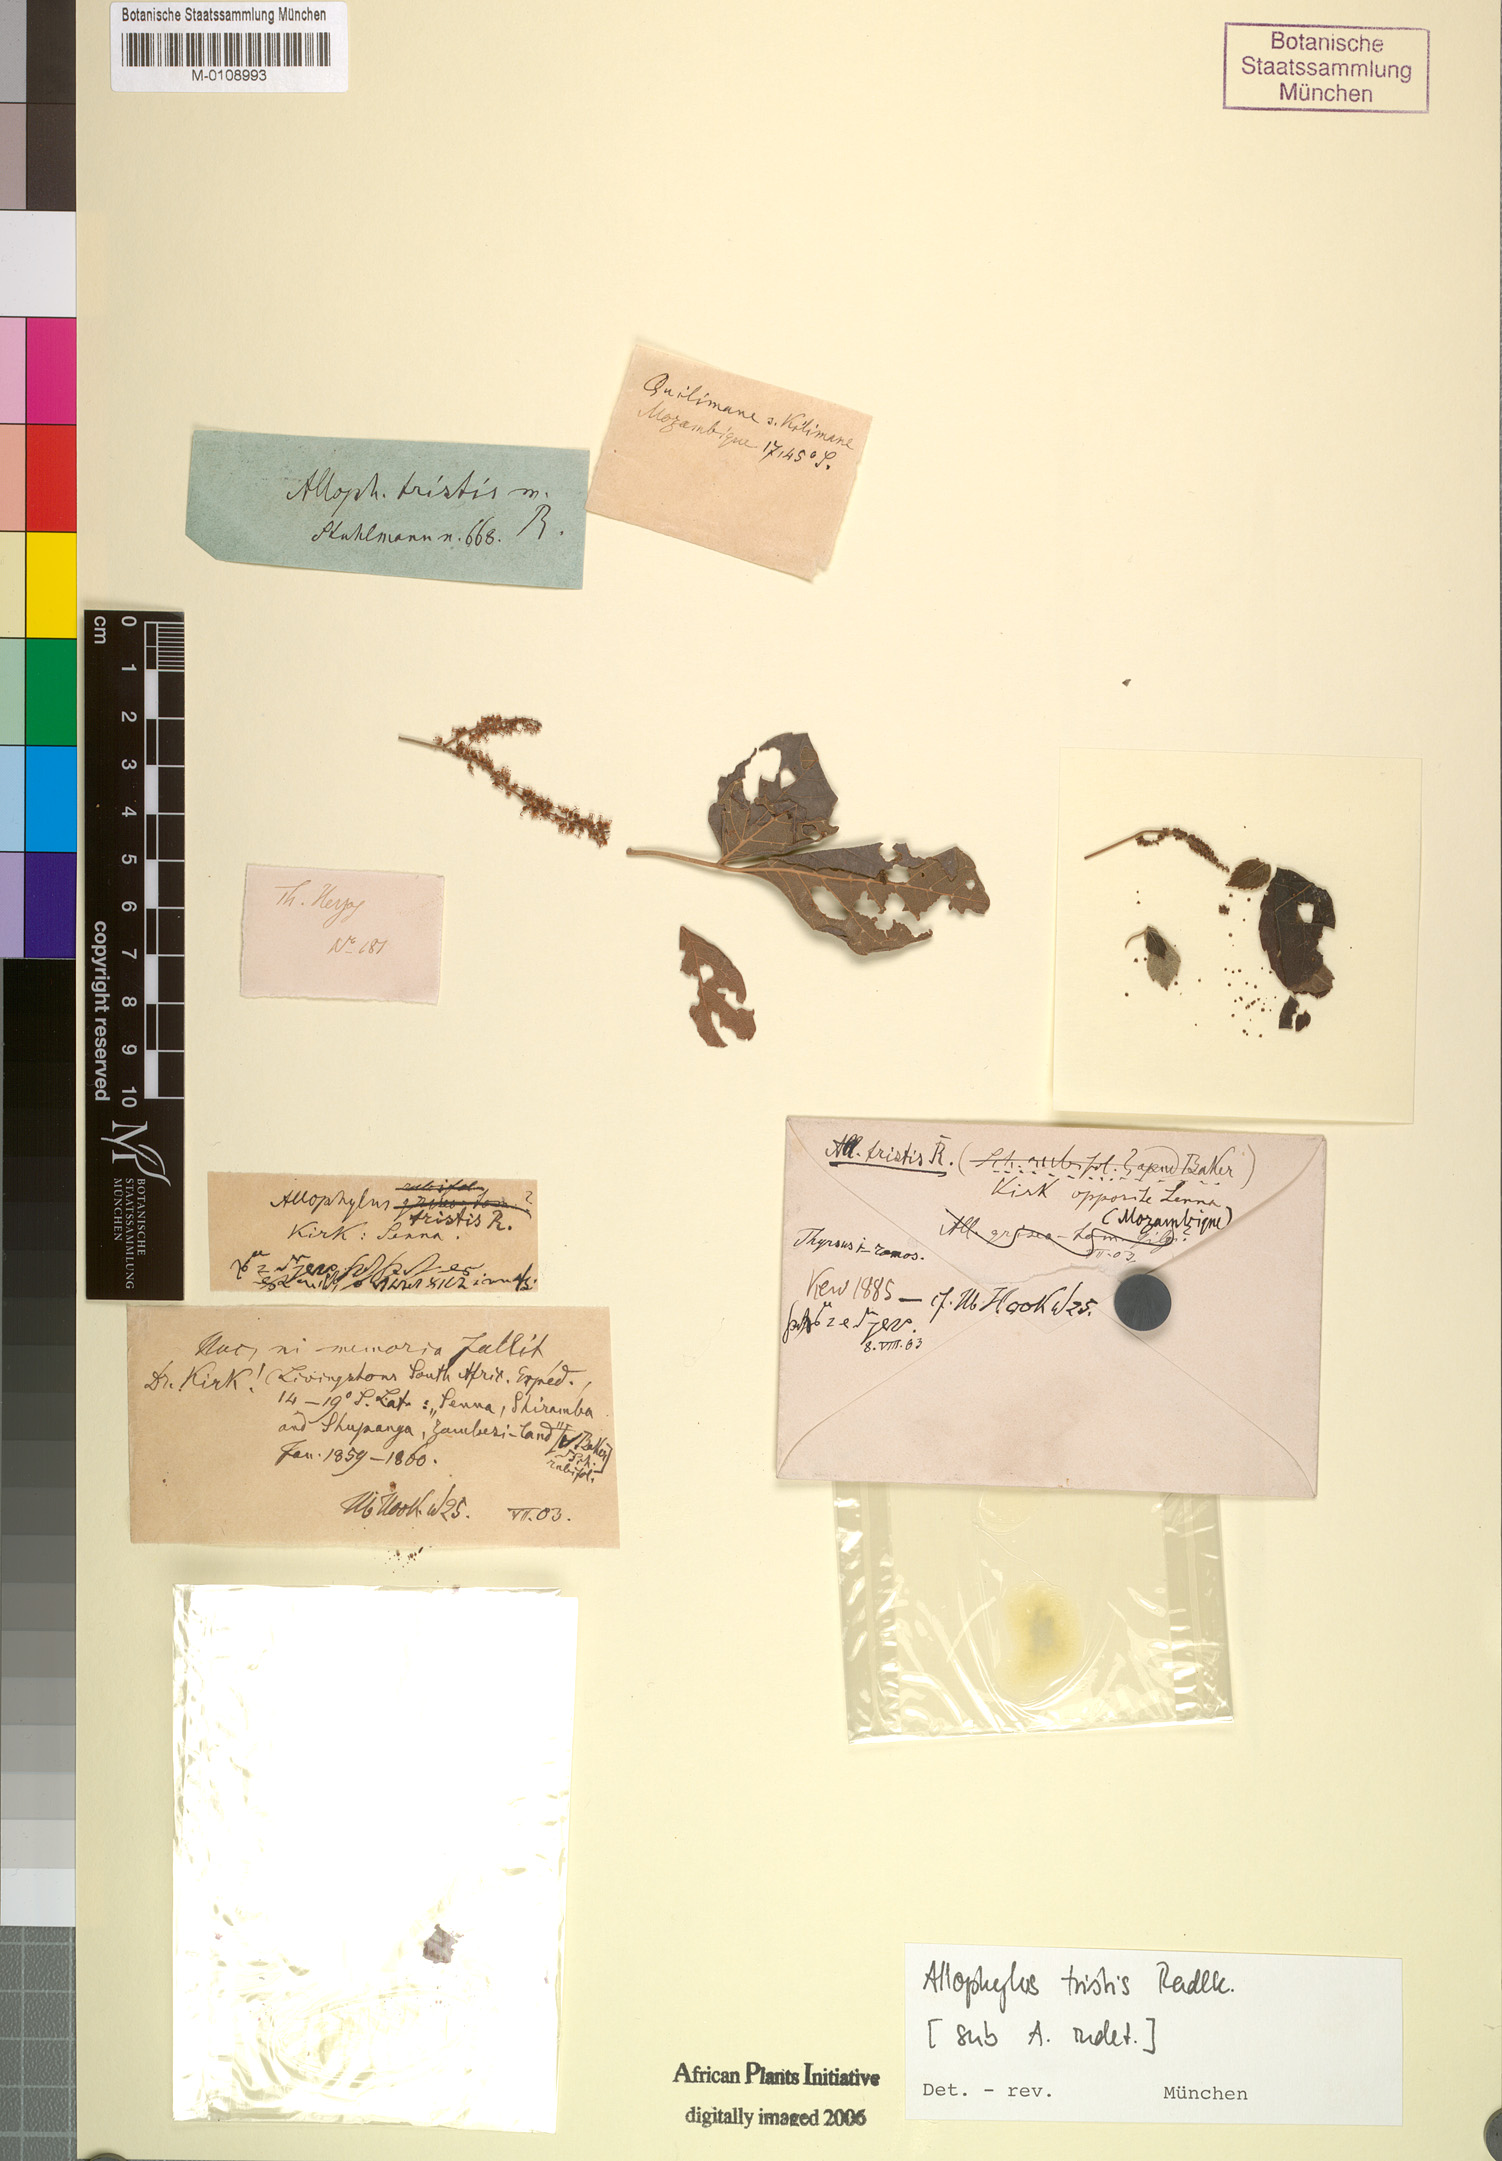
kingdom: Plantae
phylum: Tracheophyta
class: Magnoliopsida
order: Sapindales
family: Sapindaceae
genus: Allophylus
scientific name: Allophylus rubifolius
